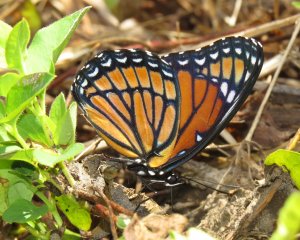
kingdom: Animalia
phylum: Arthropoda
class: Insecta
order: Lepidoptera
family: Nymphalidae
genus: Limenitis
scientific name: Limenitis archippus
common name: Viceroy
